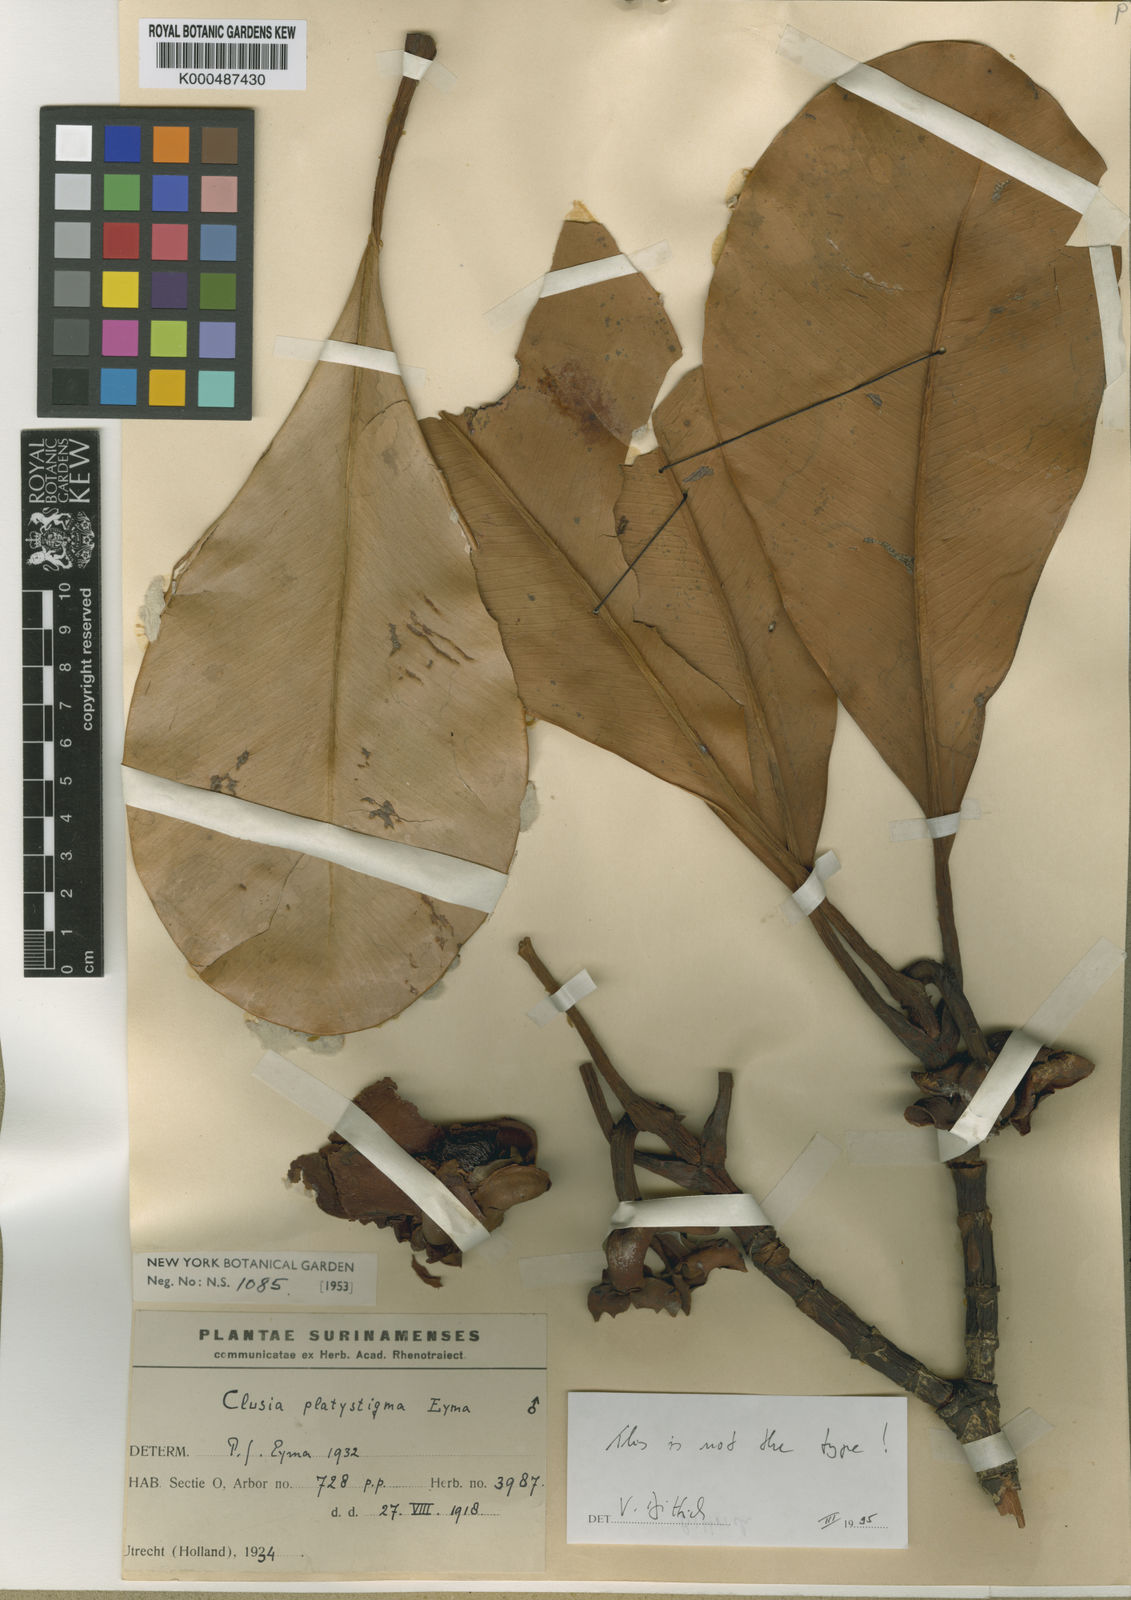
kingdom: Plantae
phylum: Tracheophyta
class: Magnoliopsida
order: Malpighiales
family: Clusiaceae
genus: Clusia
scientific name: Clusia platystigma
